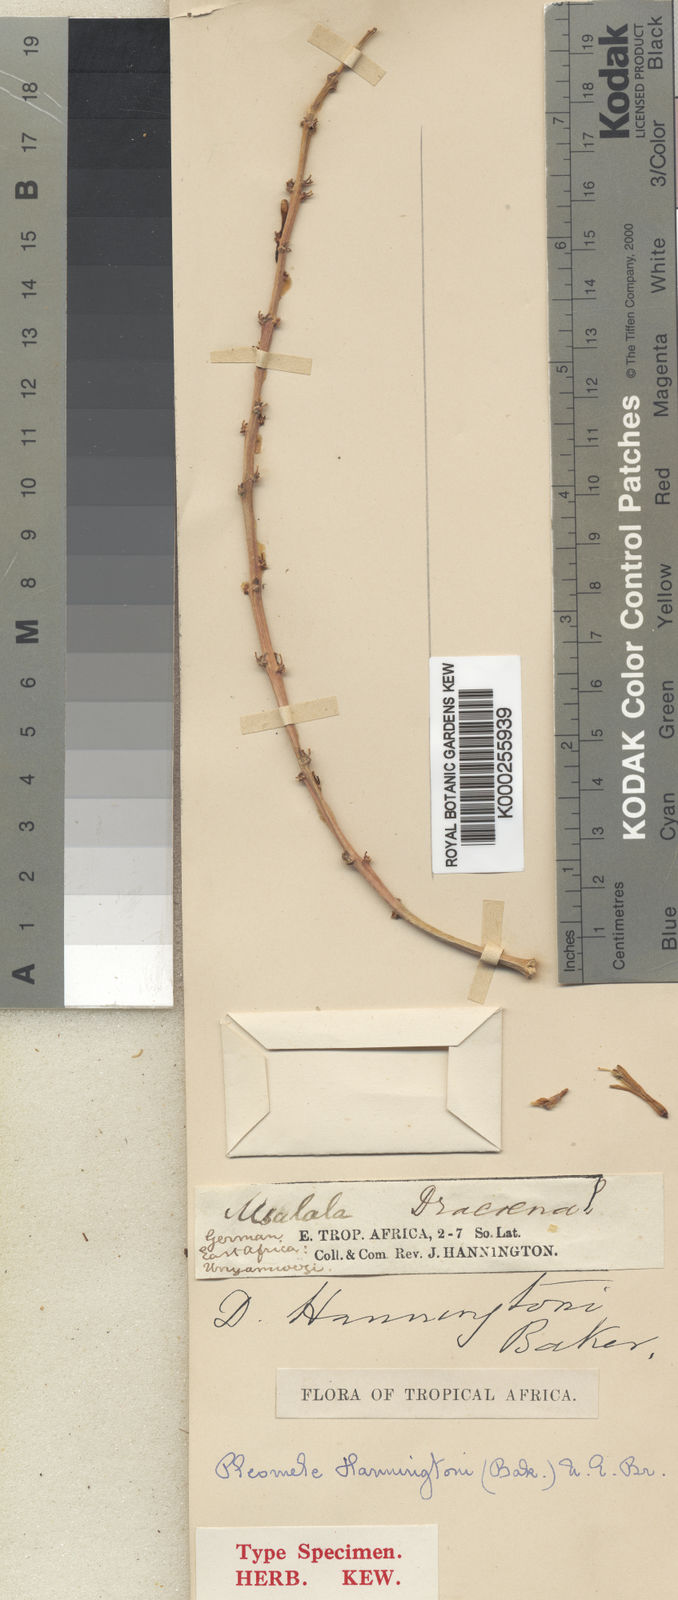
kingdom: Plantae
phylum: Tracheophyta
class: Liliopsida
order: Asparagales
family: Asparagaceae
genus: Dracaena
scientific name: Dracaena hanningtonii
